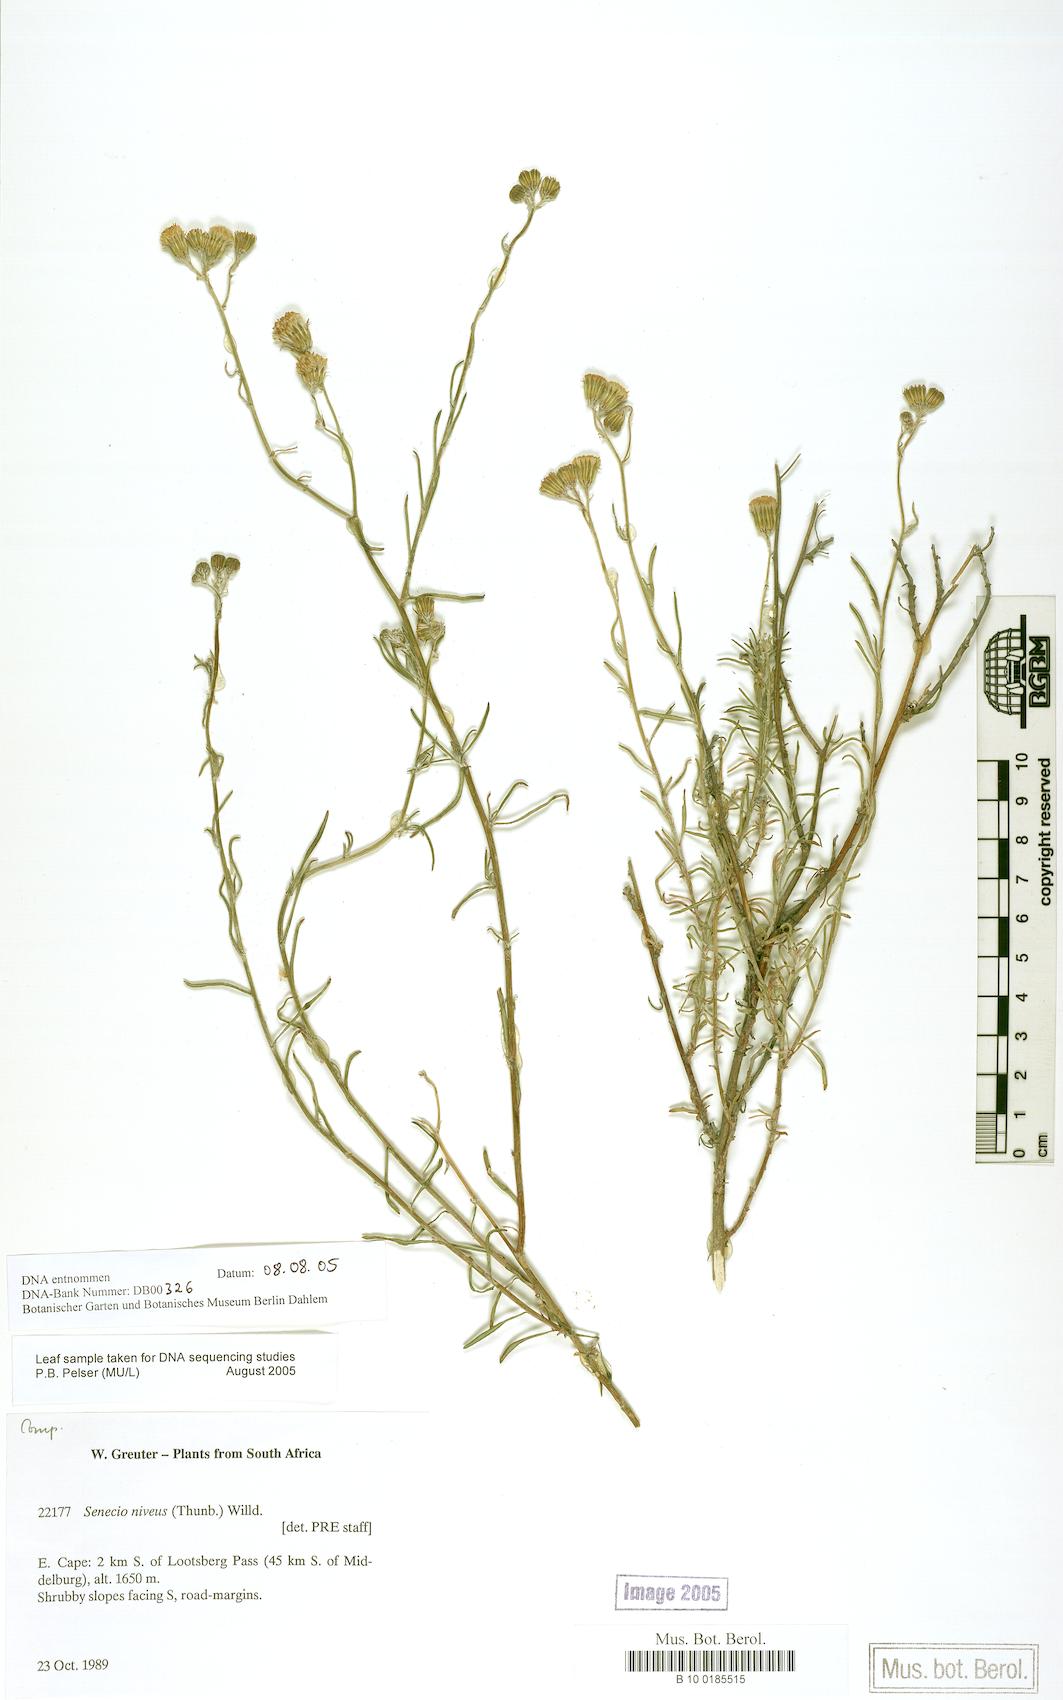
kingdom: Plantae
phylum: Tracheophyta
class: Magnoliopsida
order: Asterales
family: Asteraceae
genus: Gutenbergia
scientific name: Gutenbergia rangei
